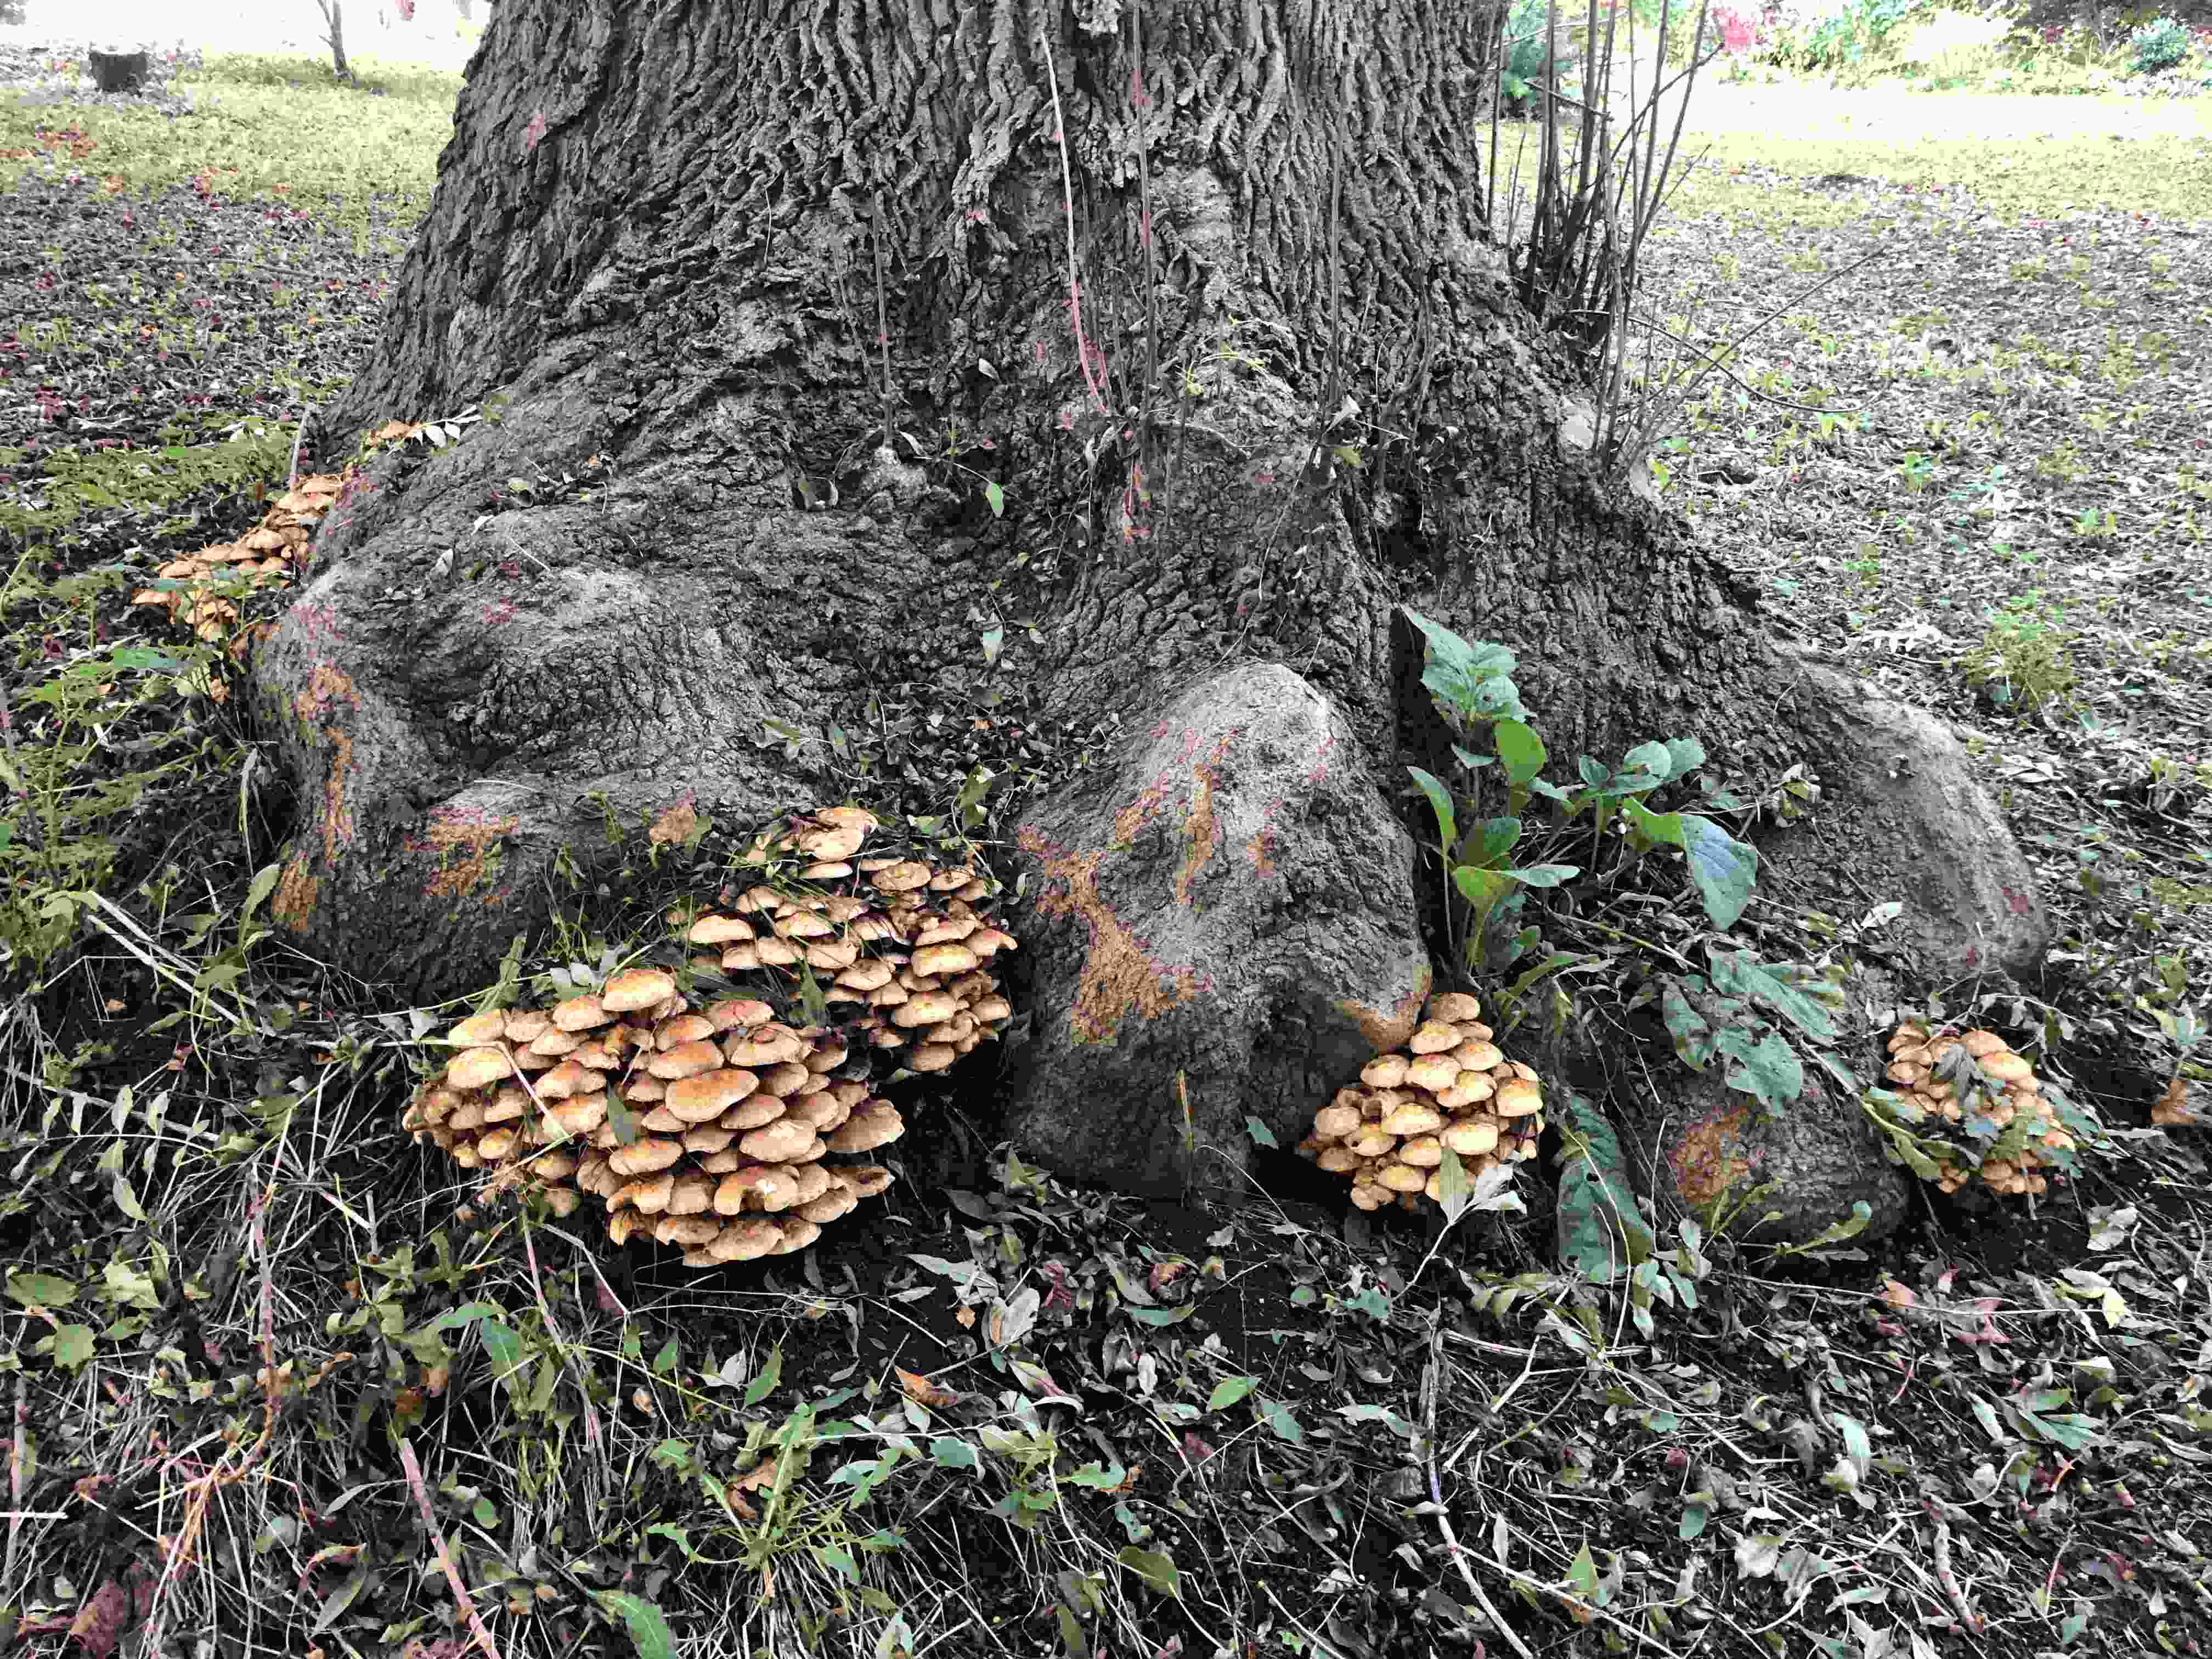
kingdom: Fungi
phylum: Basidiomycota
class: Agaricomycetes
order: Agaricales
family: Strophariaceae
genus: Pholiota
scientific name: Pholiota squarrosa
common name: krumskællet skælhat
